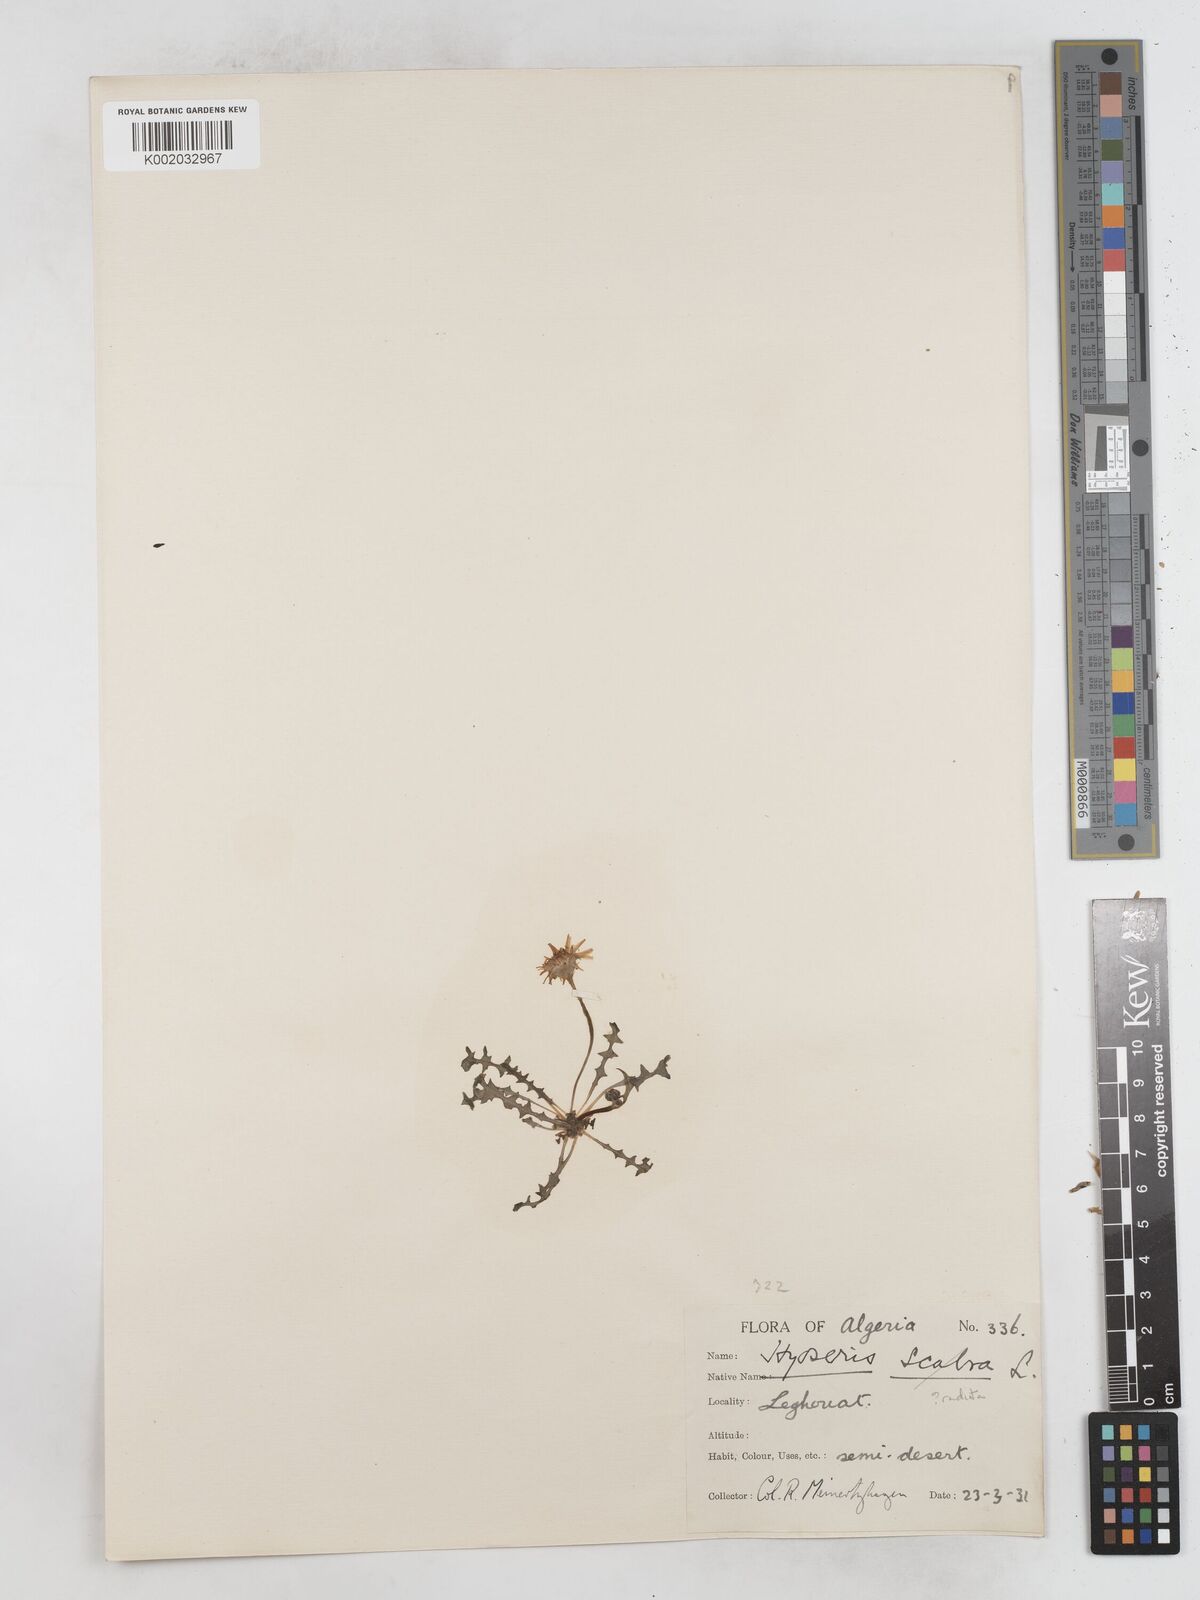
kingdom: Plantae
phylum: Tracheophyta
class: Magnoliopsida
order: Asterales
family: Asteraceae
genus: Hyoseris
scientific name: Hyoseris scabra
